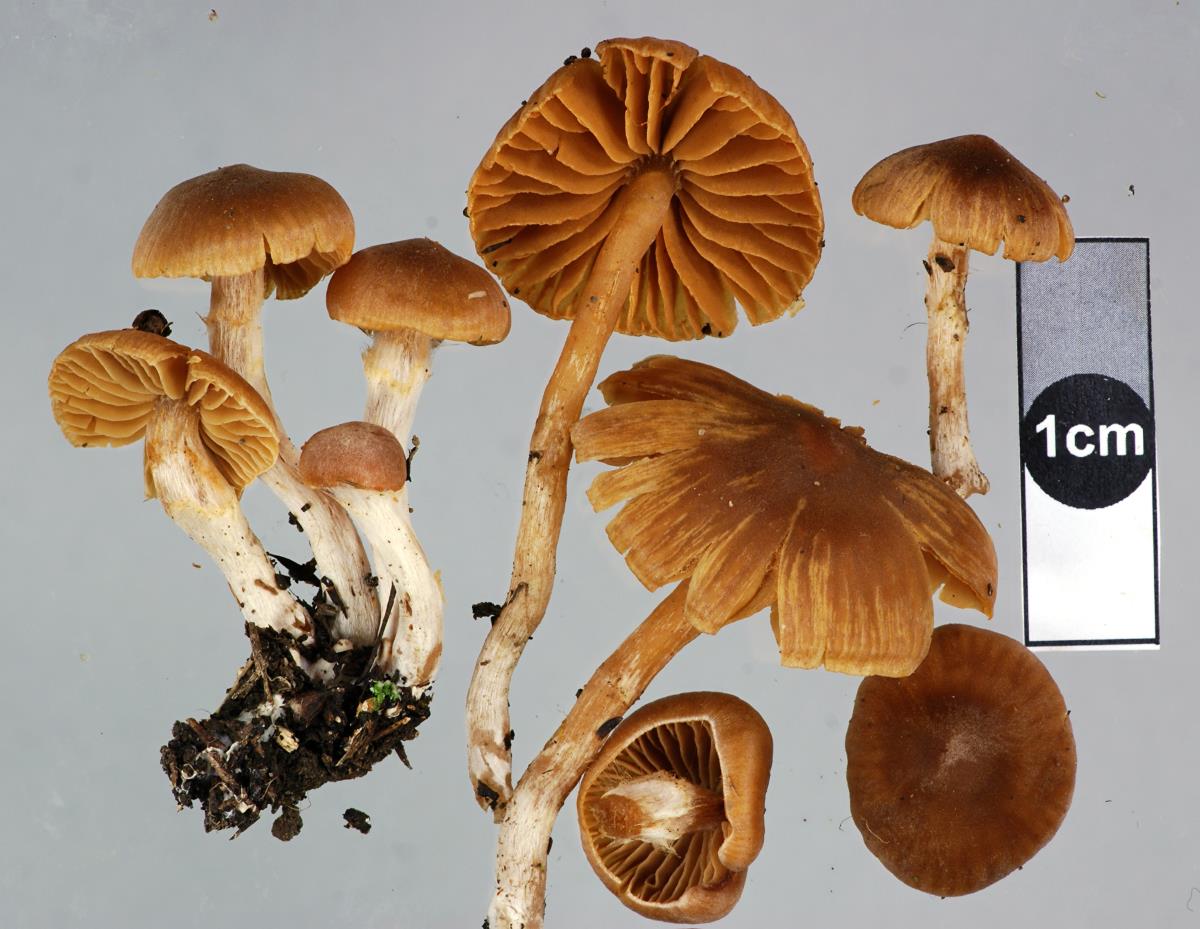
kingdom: Fungi
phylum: Basidiomycota
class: Agaricomycetes
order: Agaricales
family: Cortinariaceae
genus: Cortinarius
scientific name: Cortinarius waiporianus
